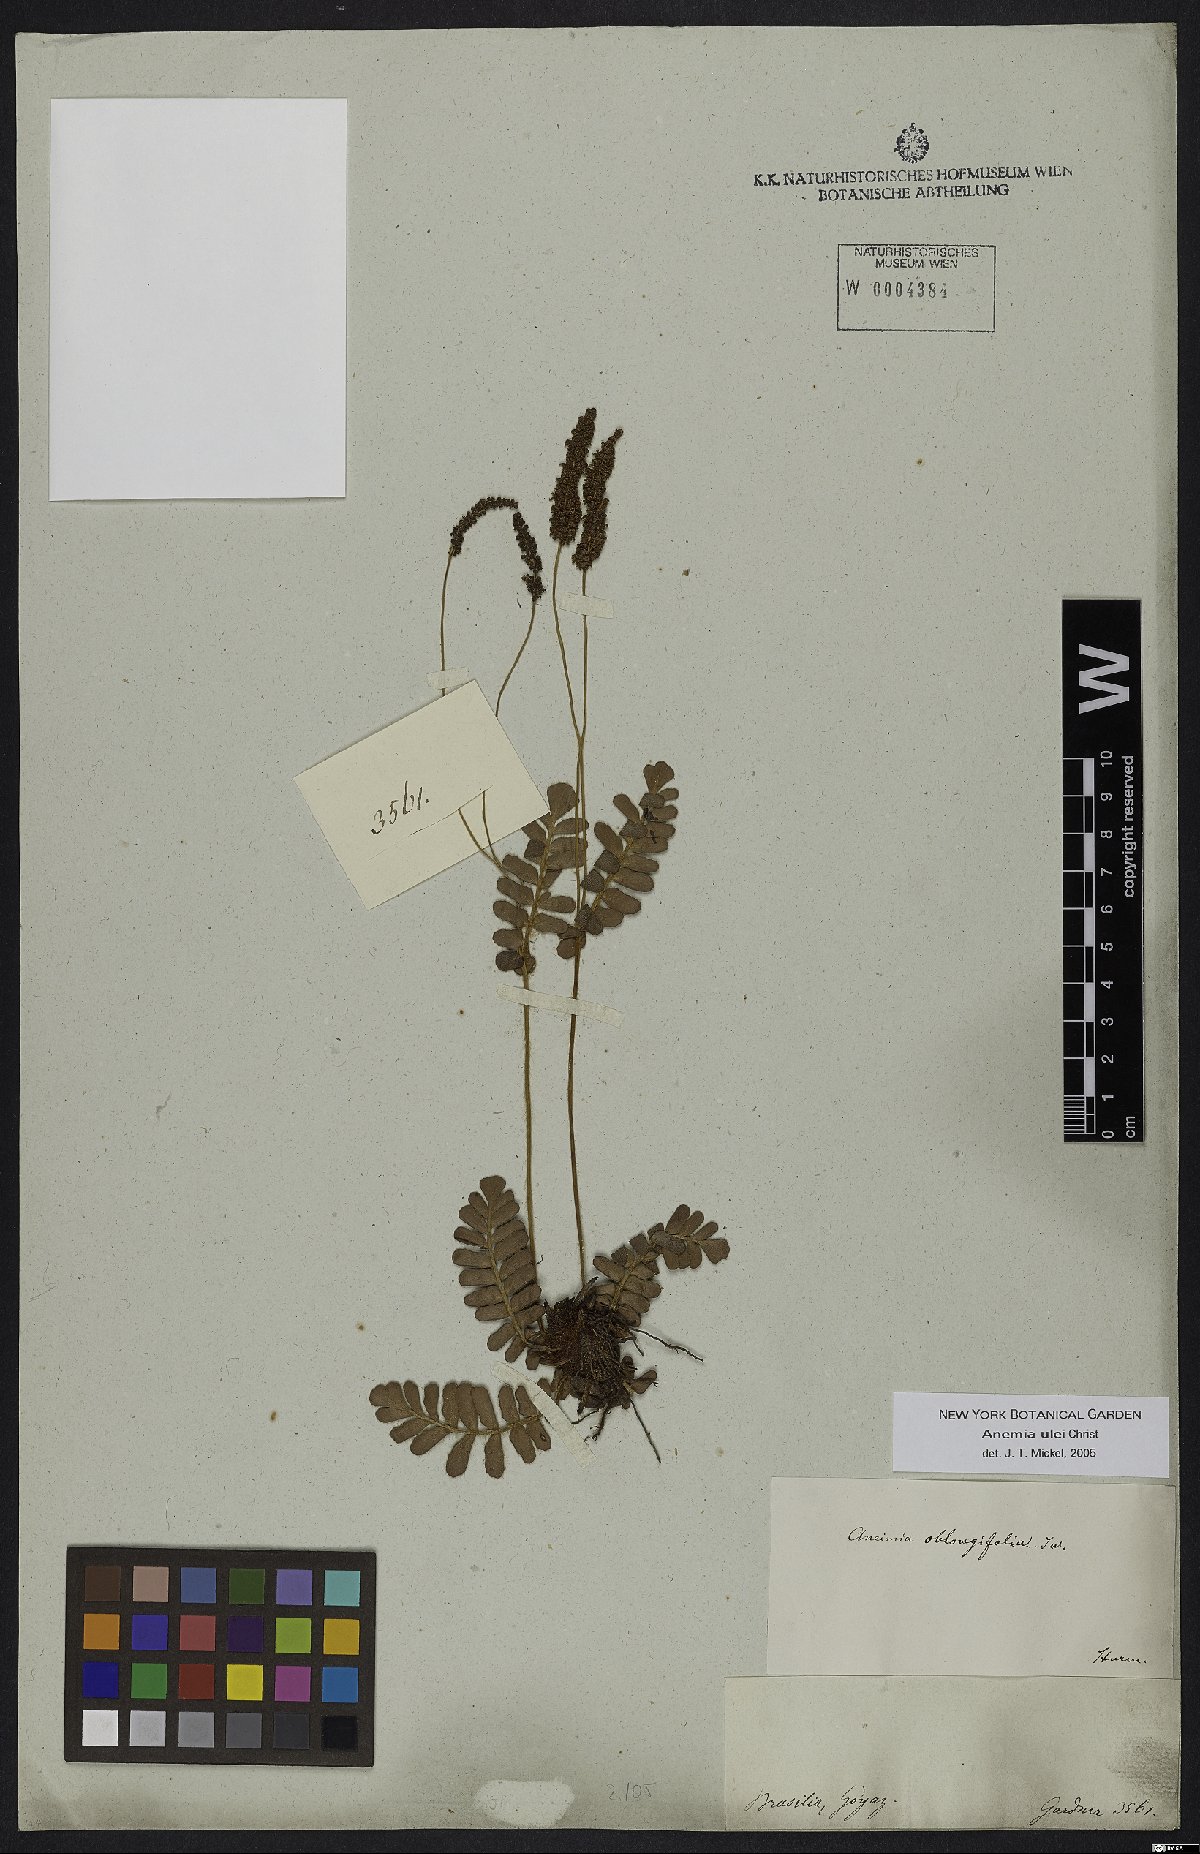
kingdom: Plantae
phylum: Tracheophyta
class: Polypodiopsida
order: Schizaeales
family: Anemiaceae
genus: Anemia
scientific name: Anemia oblongifolia
